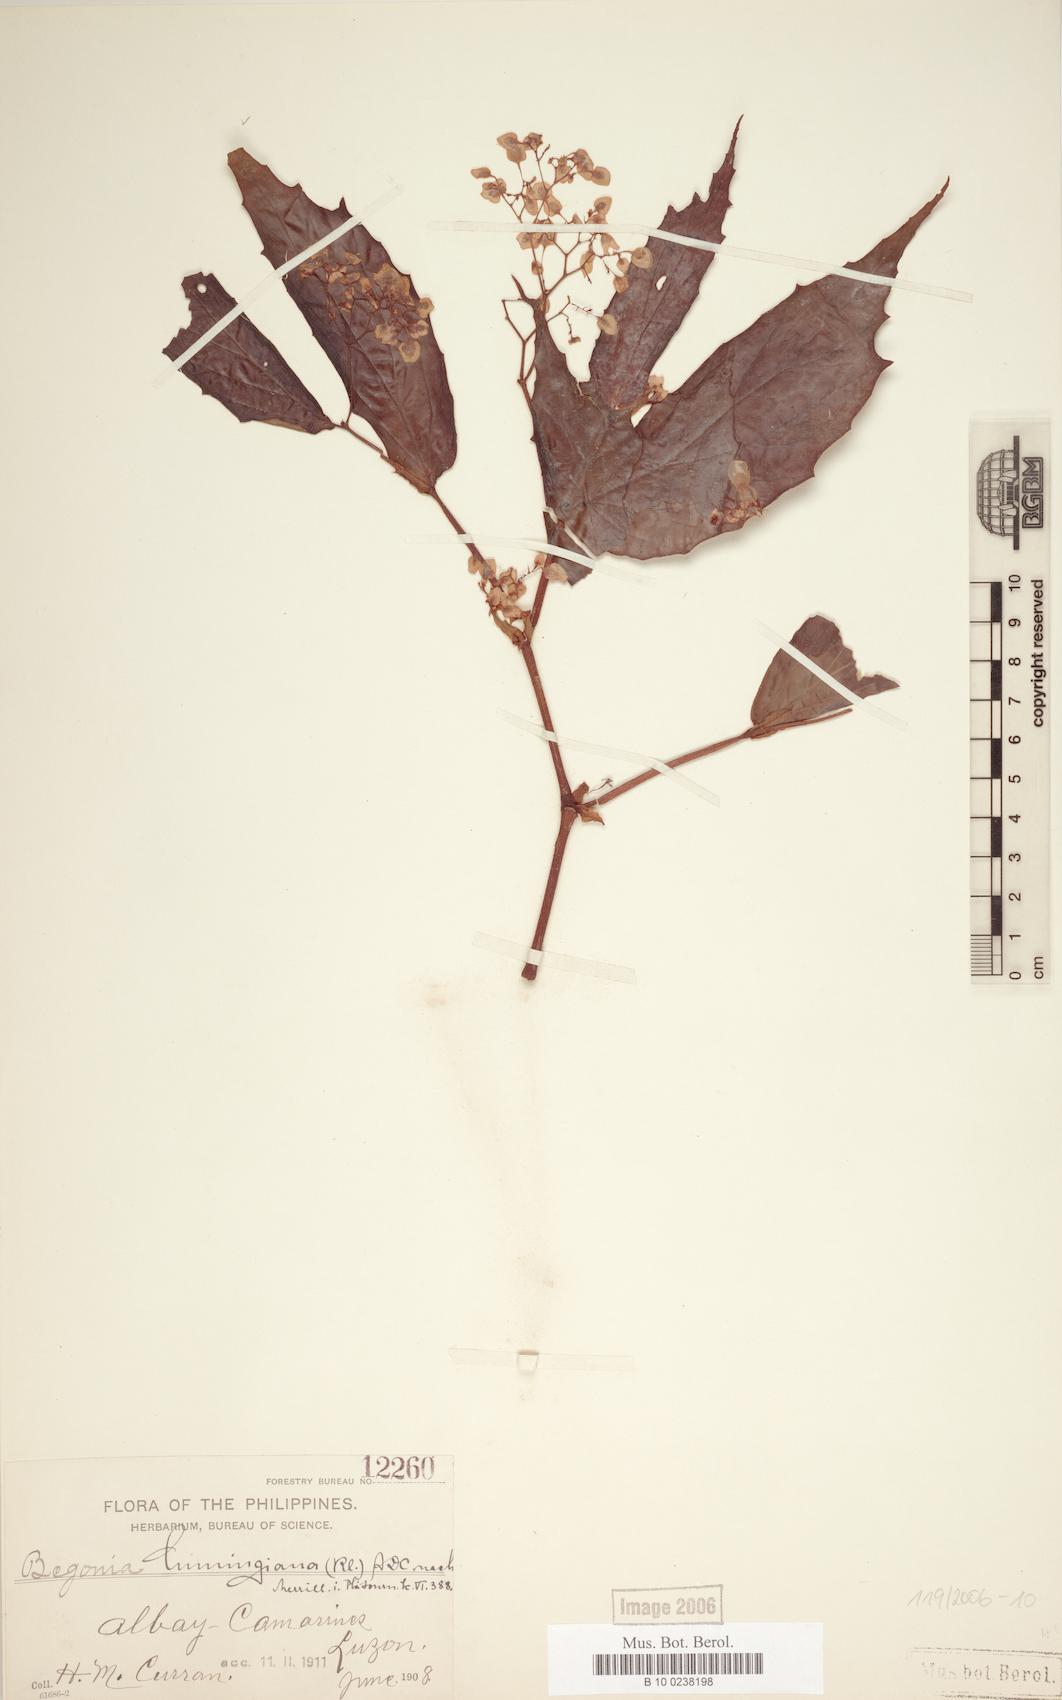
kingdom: Plantae
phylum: Tracheophyta
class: Magnoliopsida
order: Cucurbitales
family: Begoniaceae
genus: Begonia
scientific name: Begonia cumingiana
